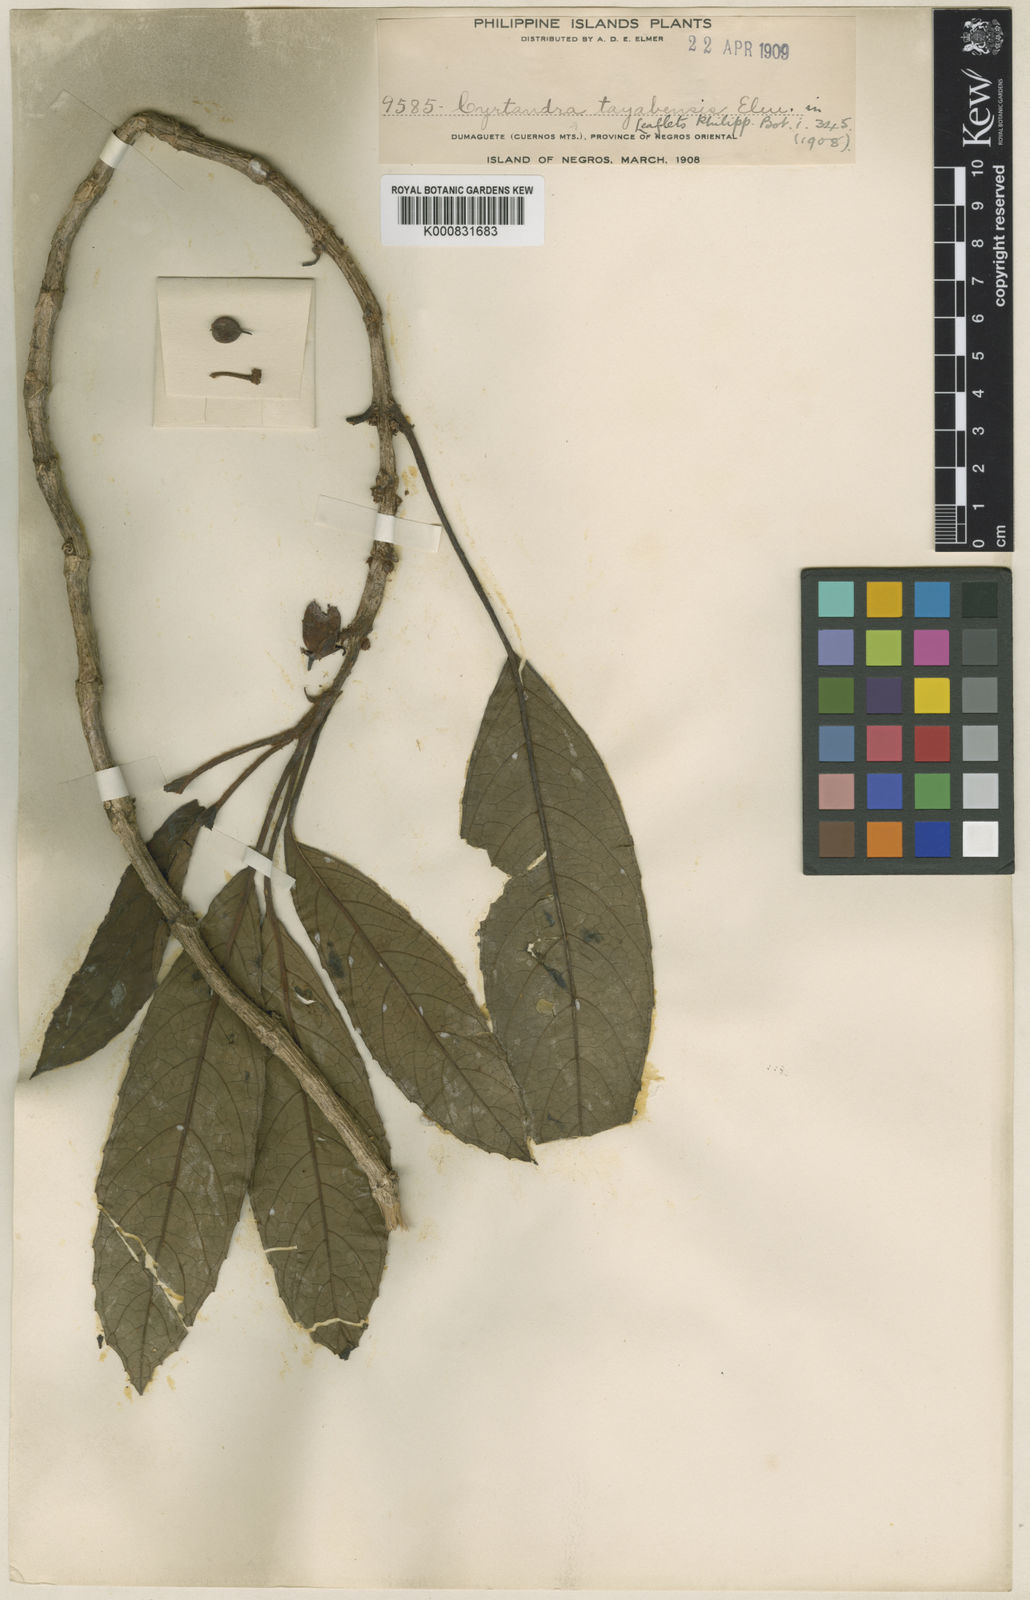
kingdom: Plantae
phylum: Tracheophyta
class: Magnoliopsida
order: Lamiales
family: Gesneriaceae
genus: Cyrtandra
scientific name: Cyrtandra tayabensis
